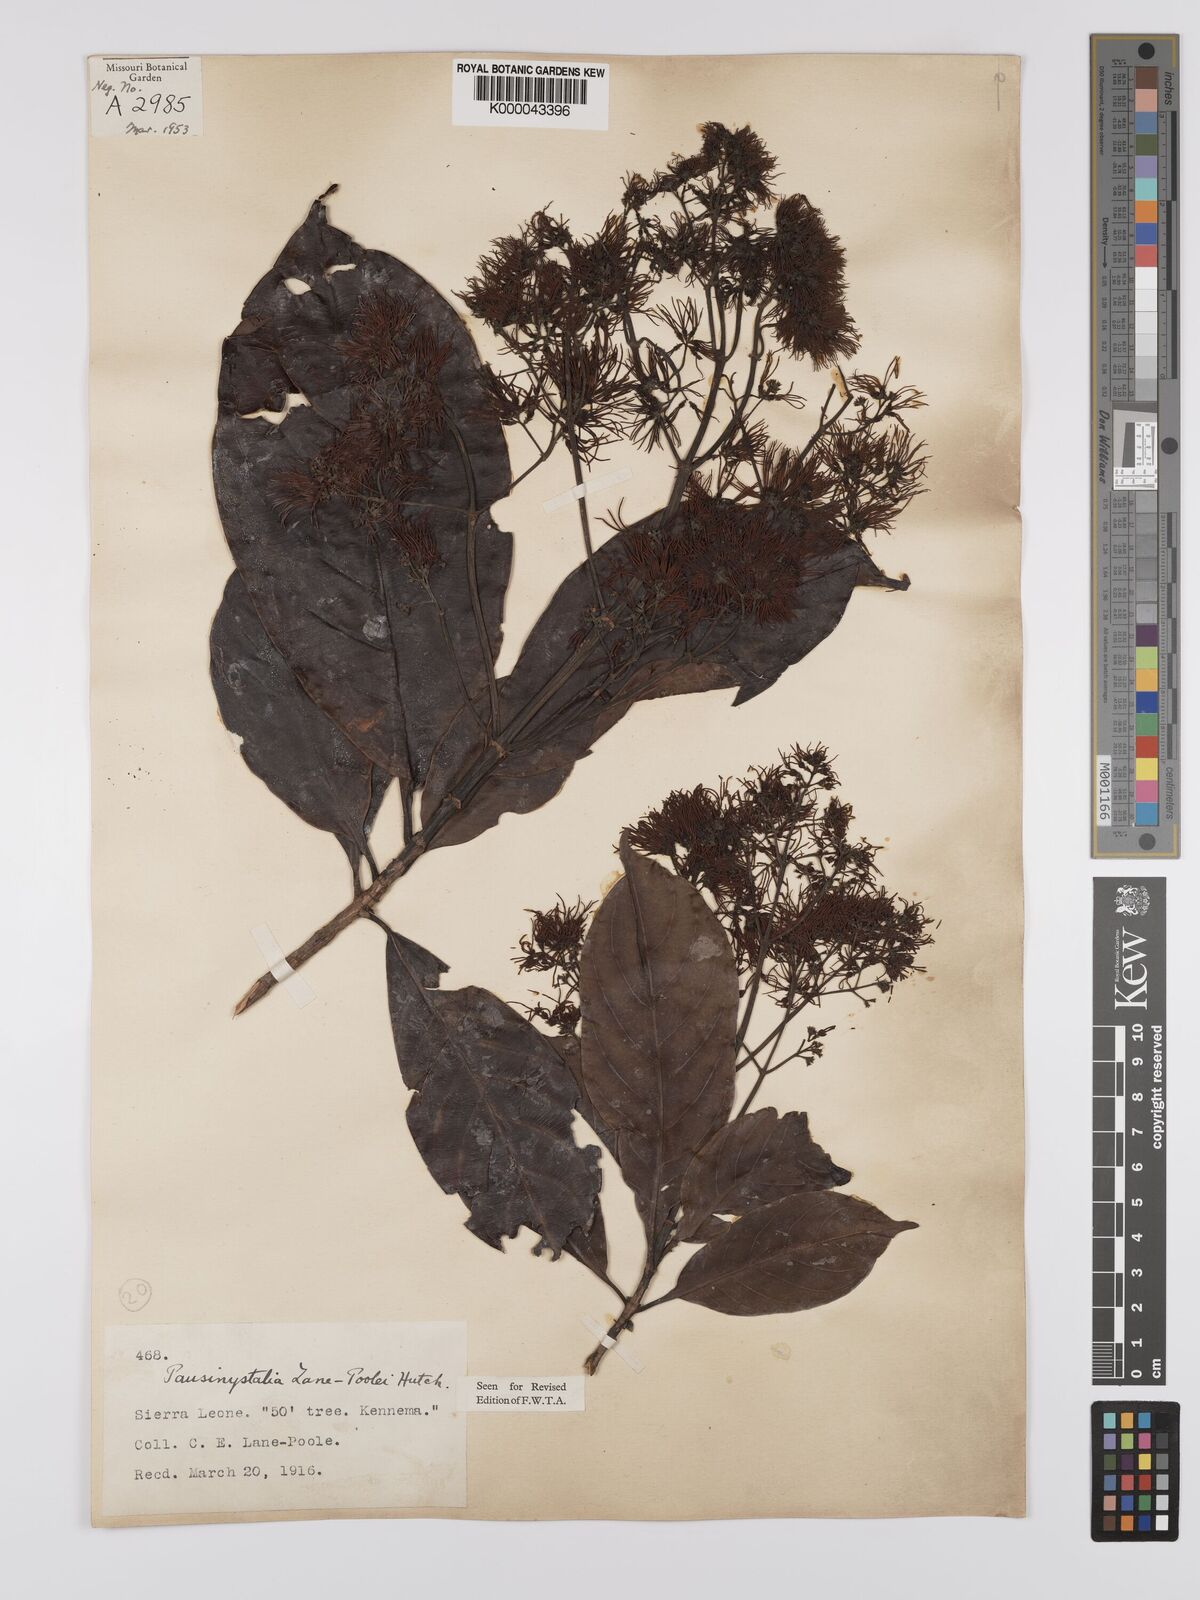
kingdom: Plantae
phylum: Tracheophyta
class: Magnoliopsida
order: Gentianales
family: Rubiaceae
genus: Corynanthe
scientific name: Corynanthe lane-poolei
